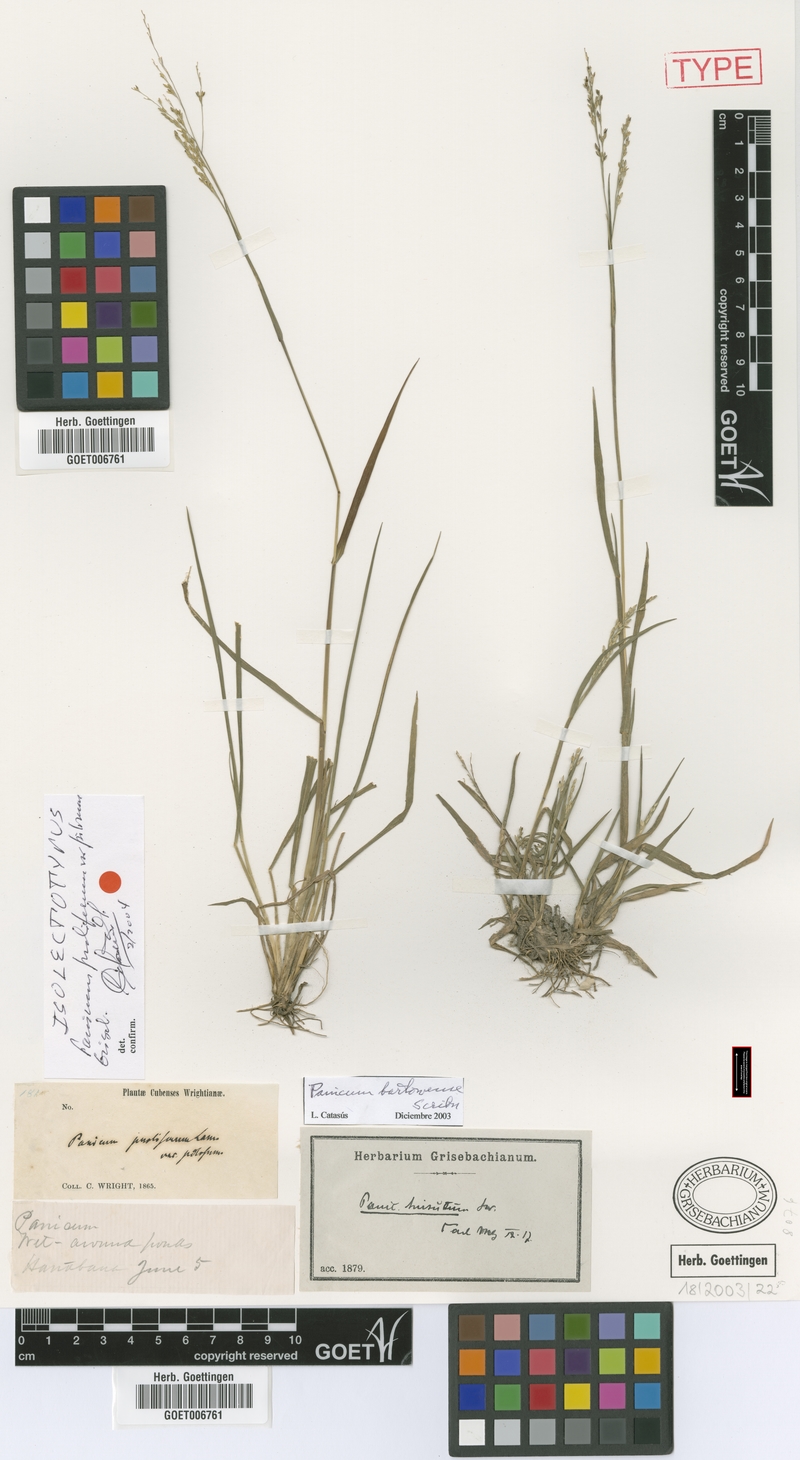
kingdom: Plantae
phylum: Tracheophyta
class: Liliopsida
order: Poales
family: Poaceae
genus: Panicum
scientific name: Panicum bartowense
